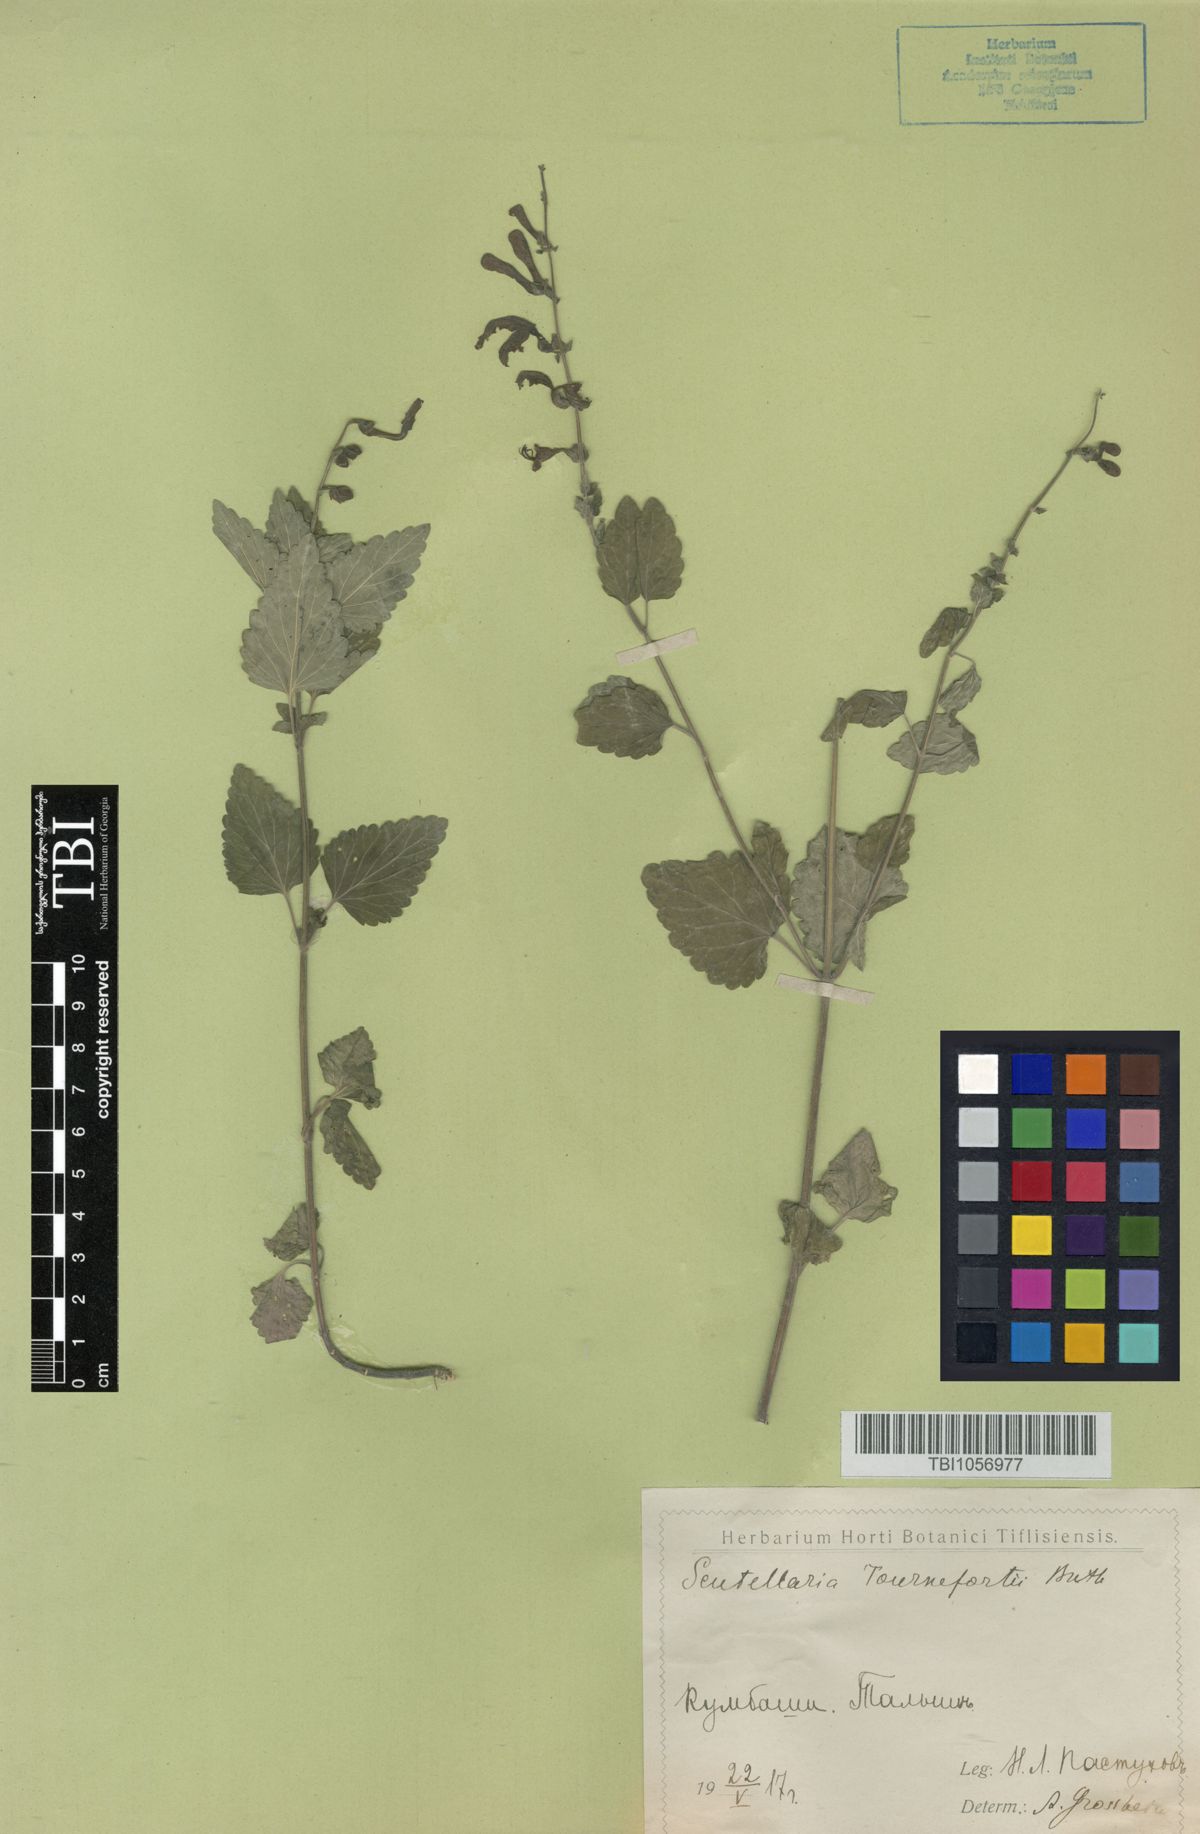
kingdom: Plantae
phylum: Tracheophyta
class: Magnoliopsida
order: Lamiales
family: Lamiaceae
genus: Scutellaria
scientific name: Scutellaria tournefortii
